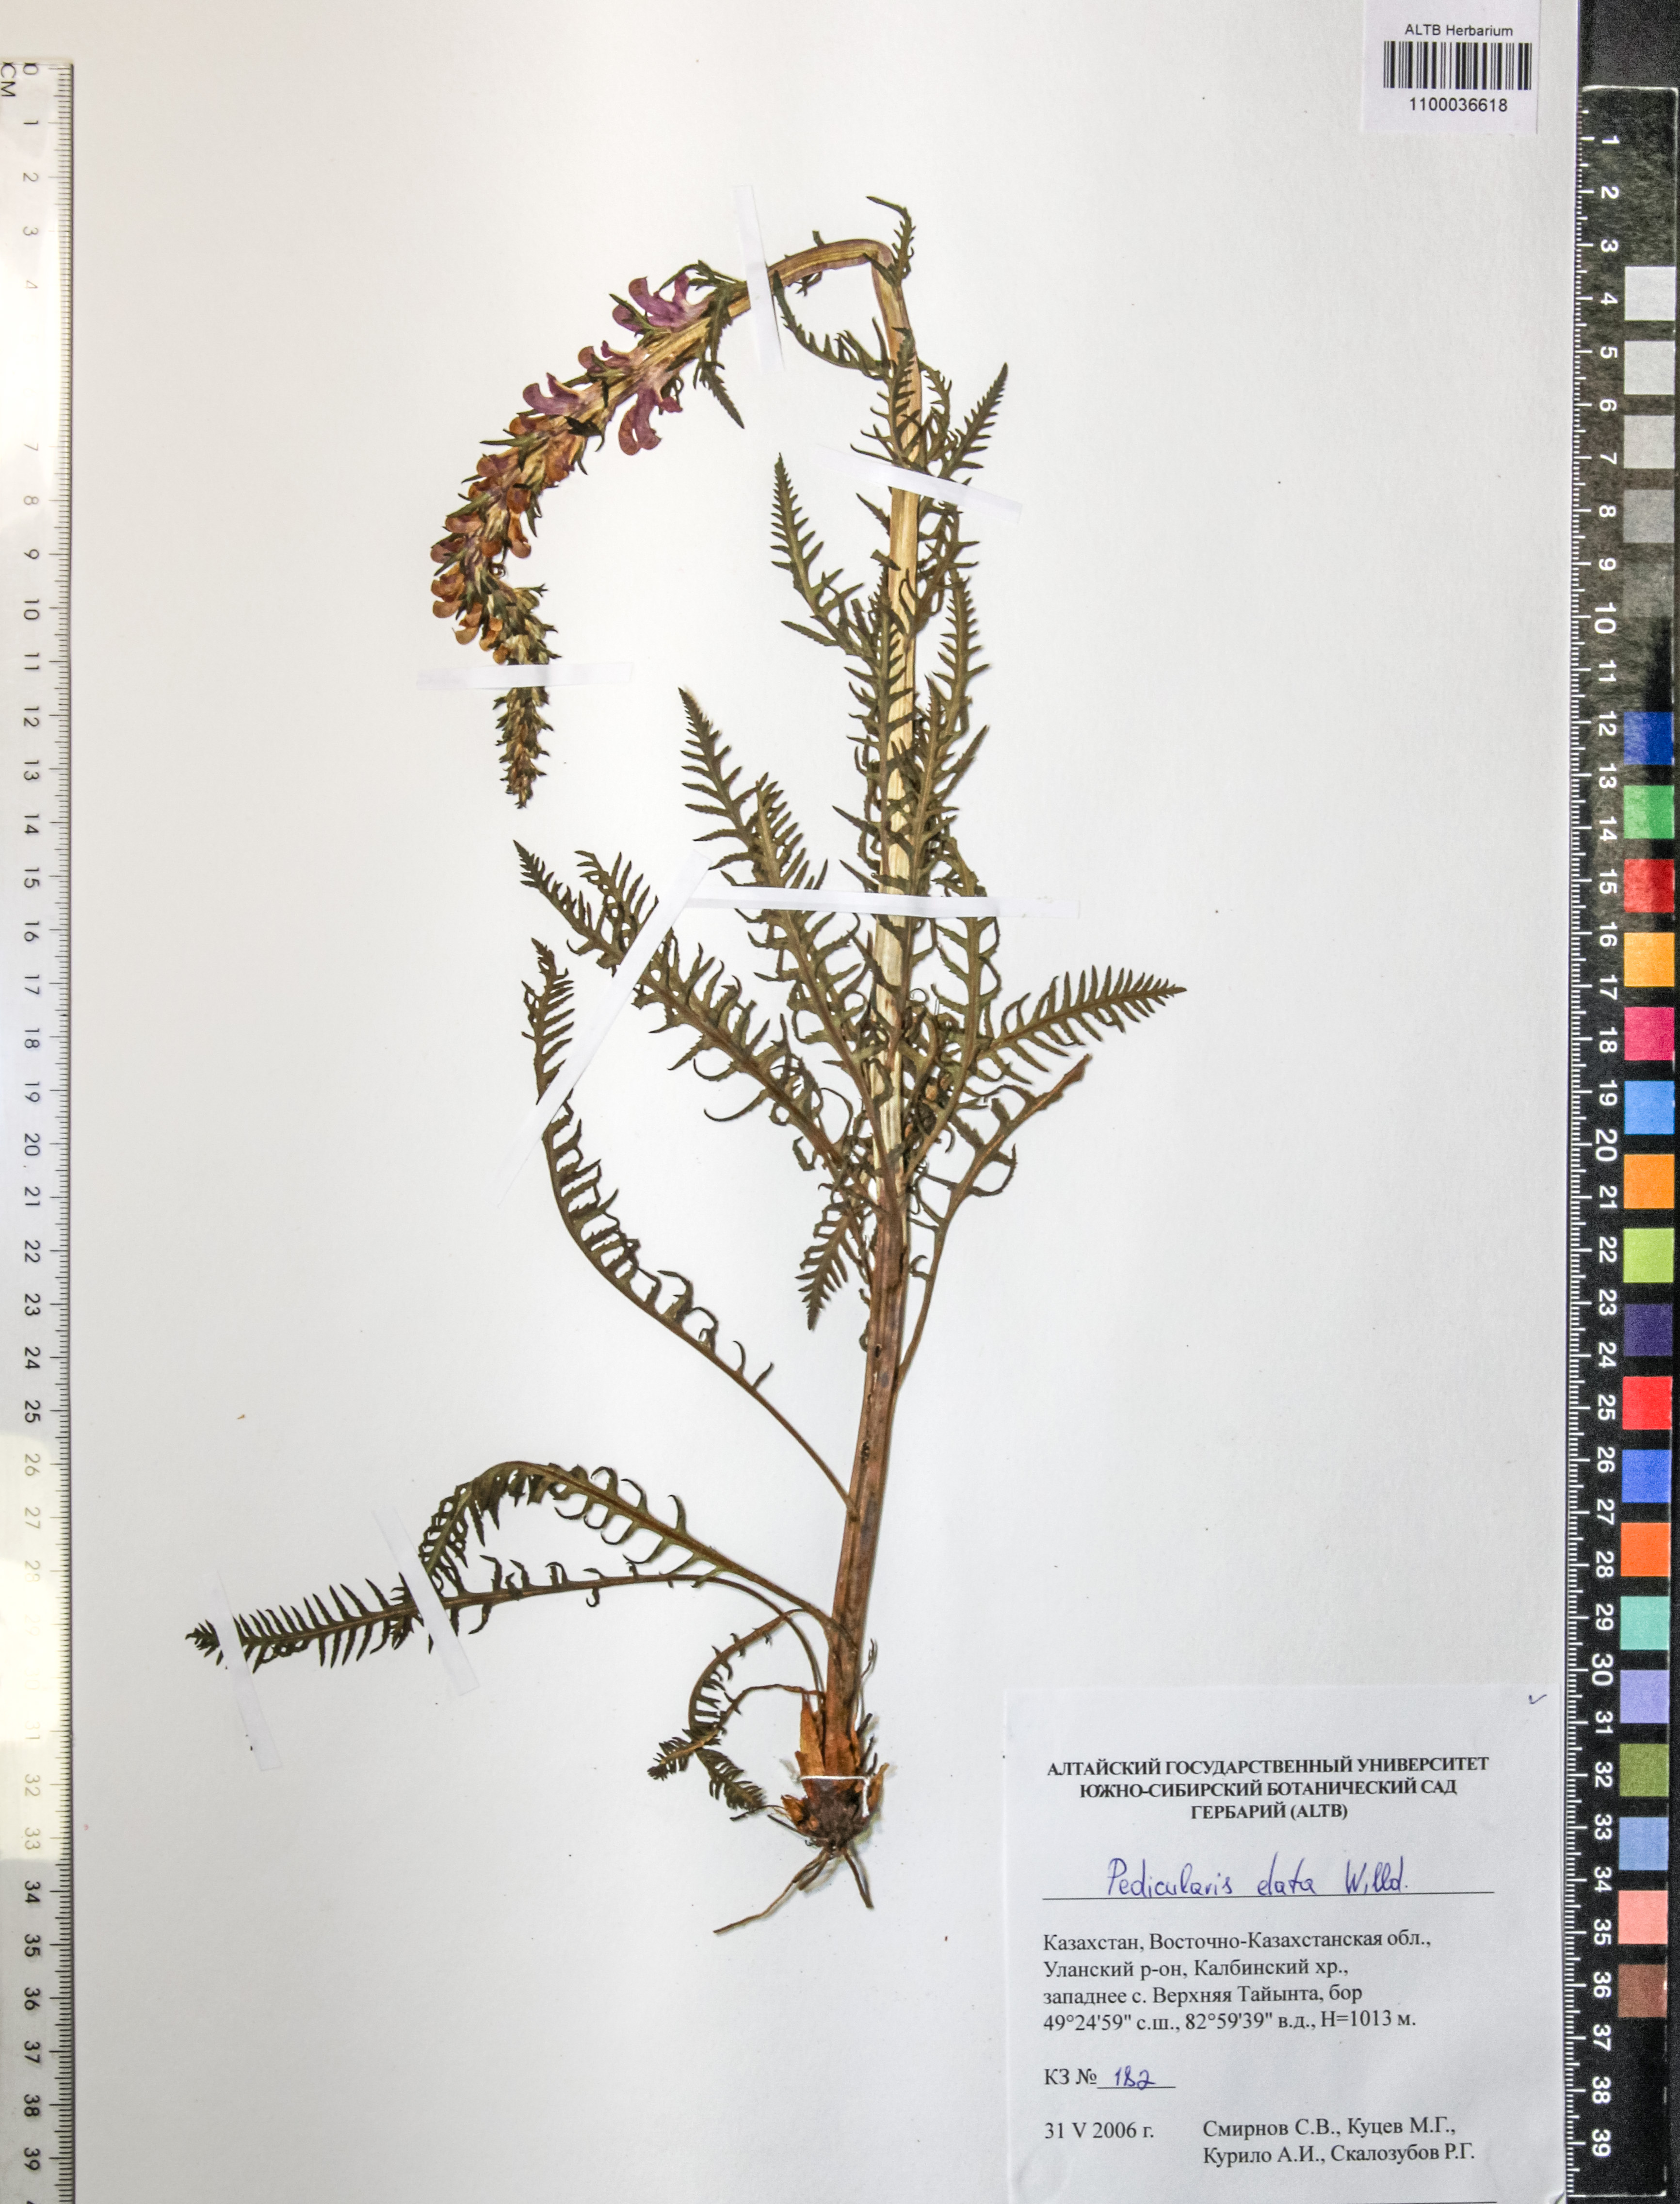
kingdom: Plantae
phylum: Tracheophyta
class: Magnoliopsida
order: Lamiales
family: Orobanchaceae
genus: Pedicularis
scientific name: Pedicularis elata
